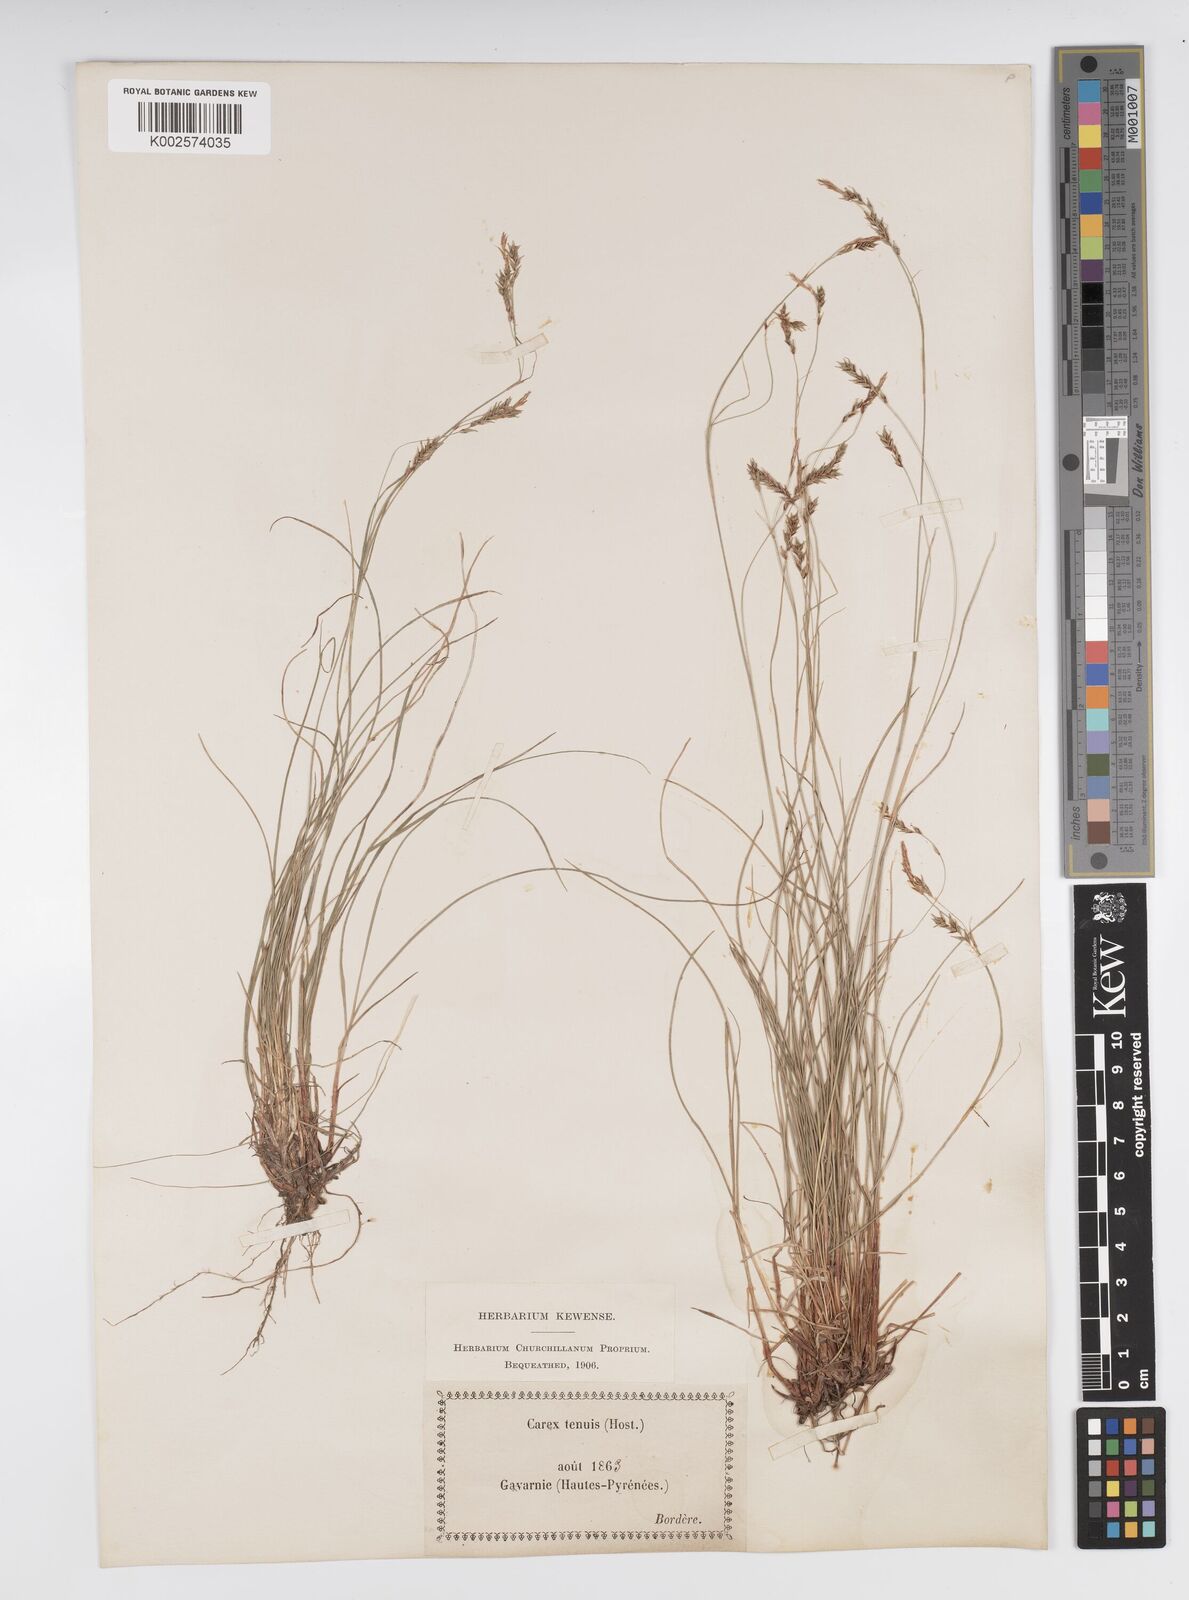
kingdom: Plantae
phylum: Tracheophyta
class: Liliopsida
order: Poales
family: Cyperaceae
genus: Carex
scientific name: Carex brachystachys
